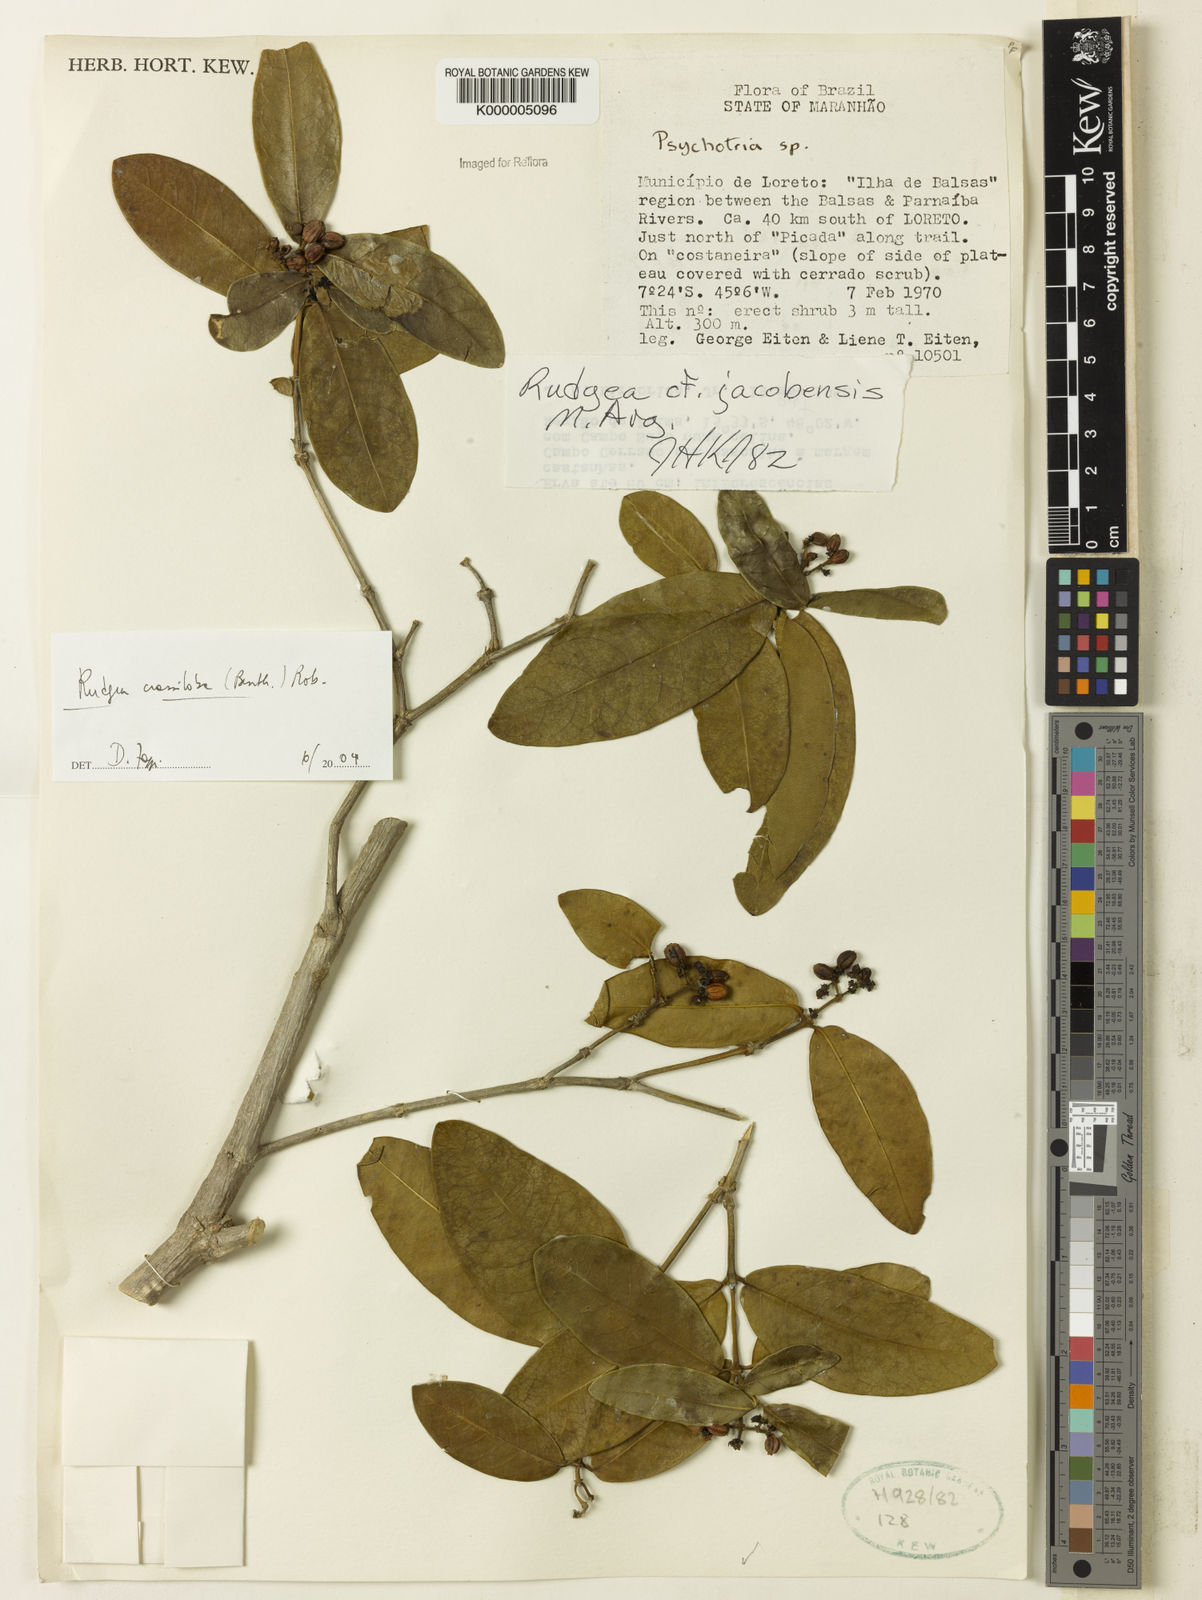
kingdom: Plantae
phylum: Tracheophyta
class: Magnoliopsida
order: Gentianales
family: Rubiaceae
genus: Rudgea
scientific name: Rudgea crassiloba
